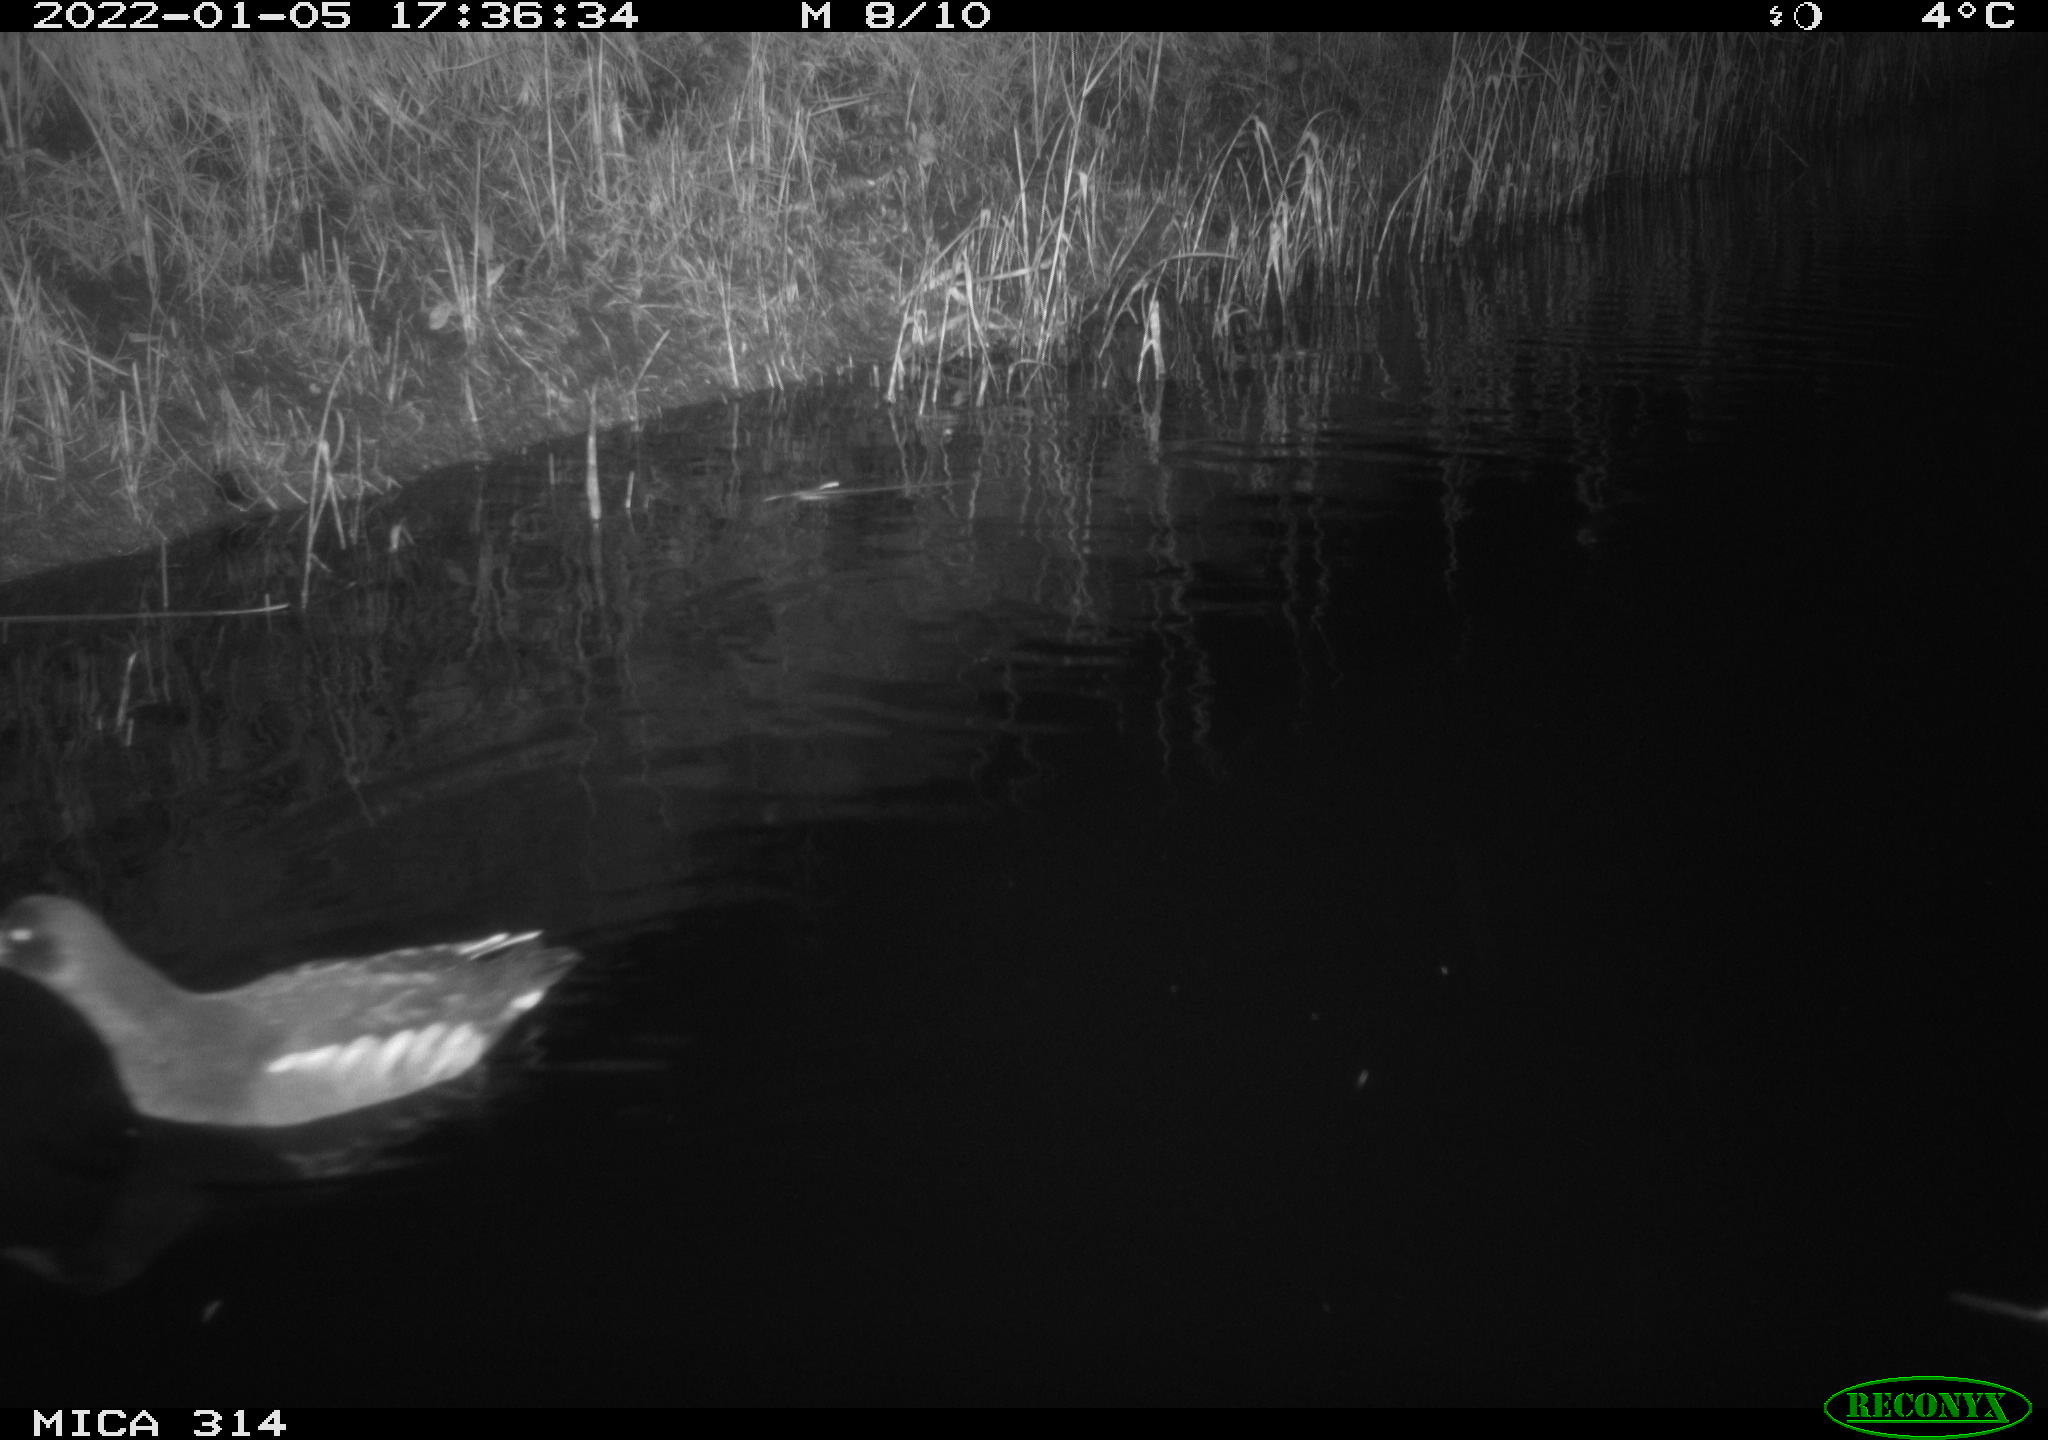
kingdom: Animalia
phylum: Chordata
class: Aves
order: Gruiformes
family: Rallidae
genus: Gallinula
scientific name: Gallinula chloropus
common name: Common moorhen
